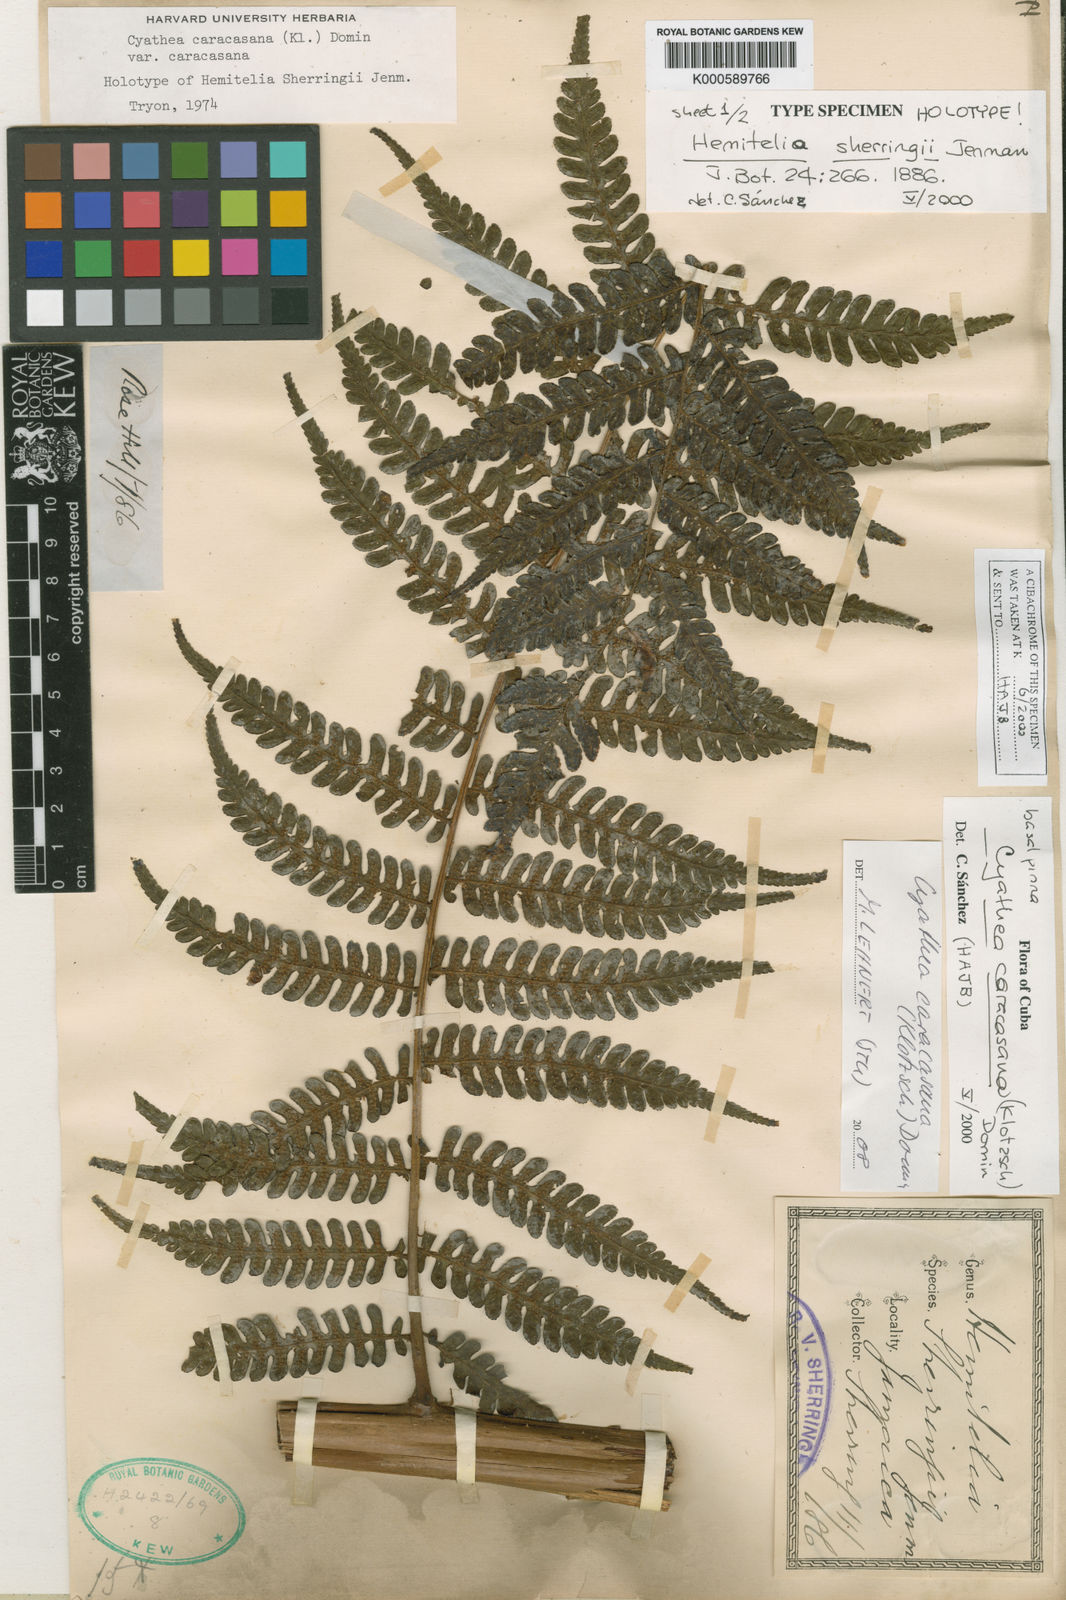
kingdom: Plantae
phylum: Tracheophyta
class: Polypodiopsida
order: Cyatheales
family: Cyatheaceae
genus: Cyathea
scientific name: Cyathea caracasana
